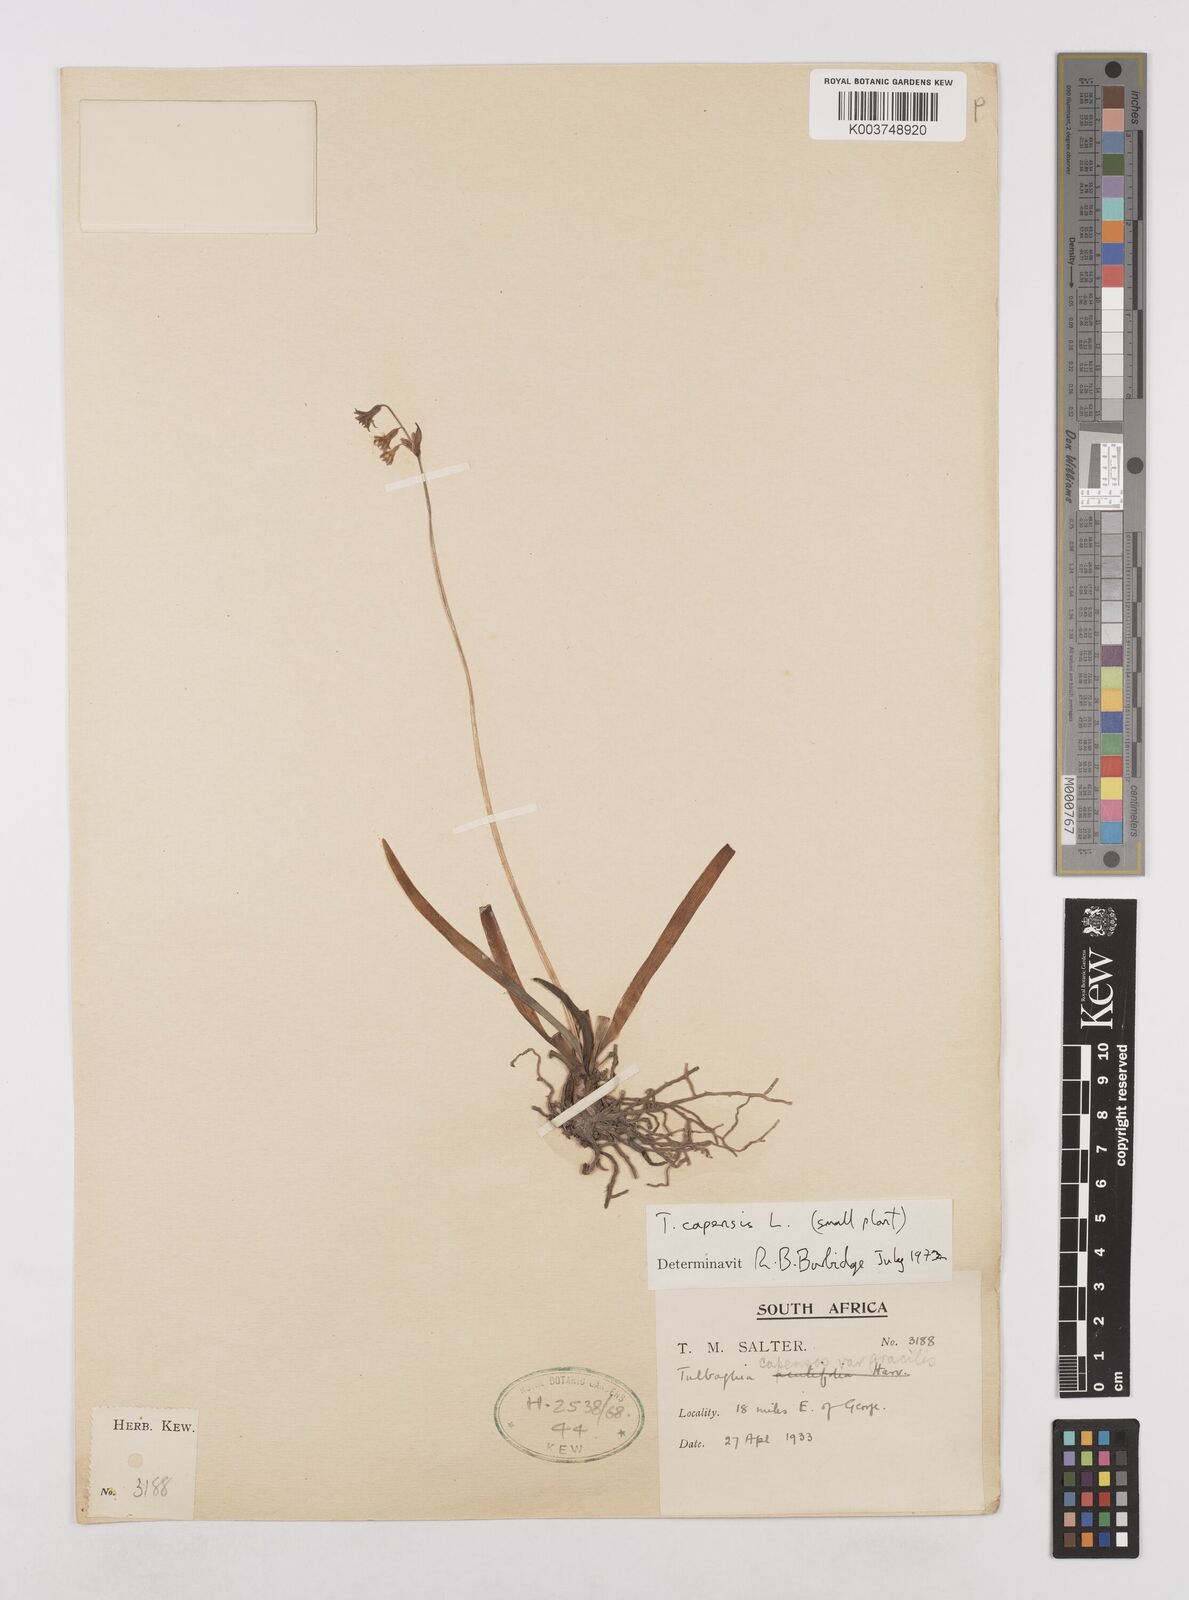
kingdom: Plantae
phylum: Tracheophyta
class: Liliopsida
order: Asparagales
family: Amaryllidaceae
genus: Tulbaghia
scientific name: Tulbaghia capensis
